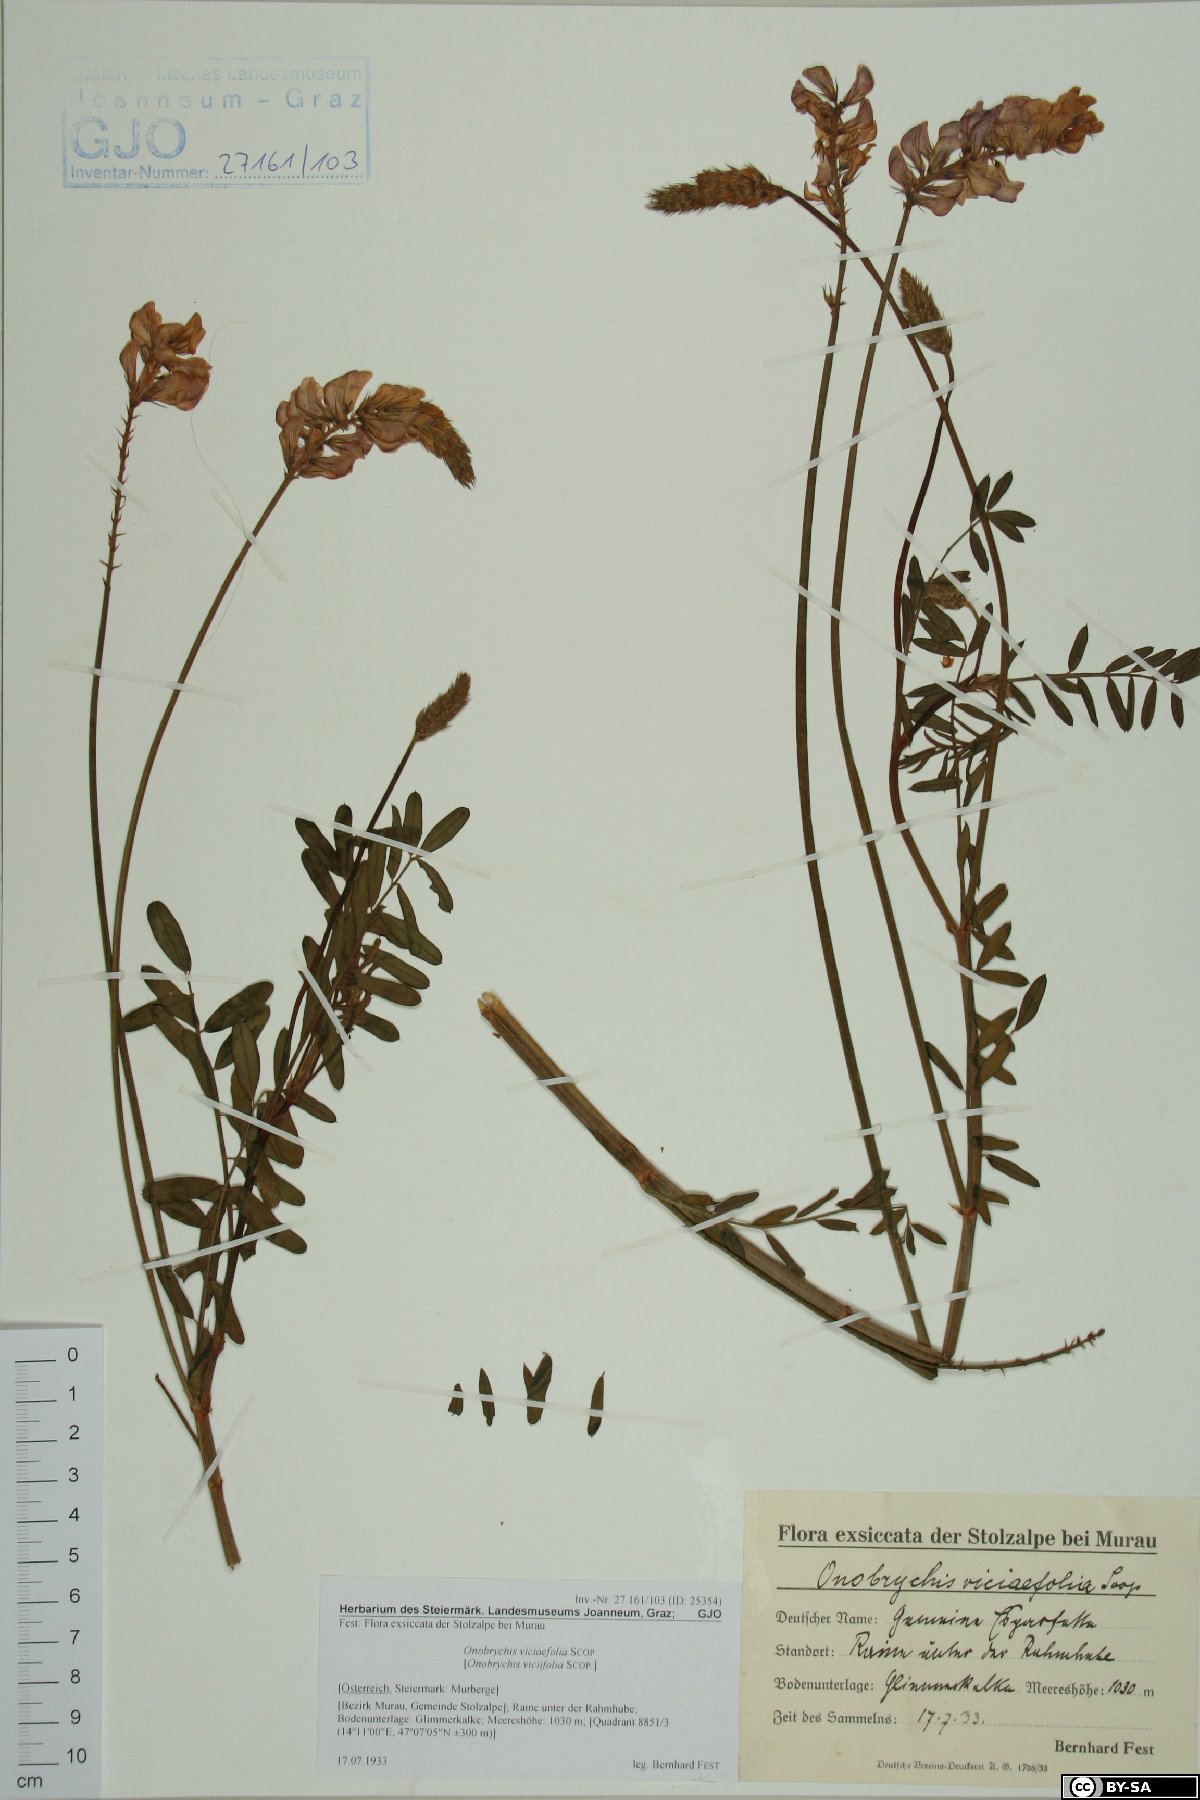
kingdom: Plantae
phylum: Tracheophyta
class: Magnoliopsida
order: Fabales
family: Fabaceae
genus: Onobrychis
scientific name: Onobrychis viciifolia
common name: Sainfoin
